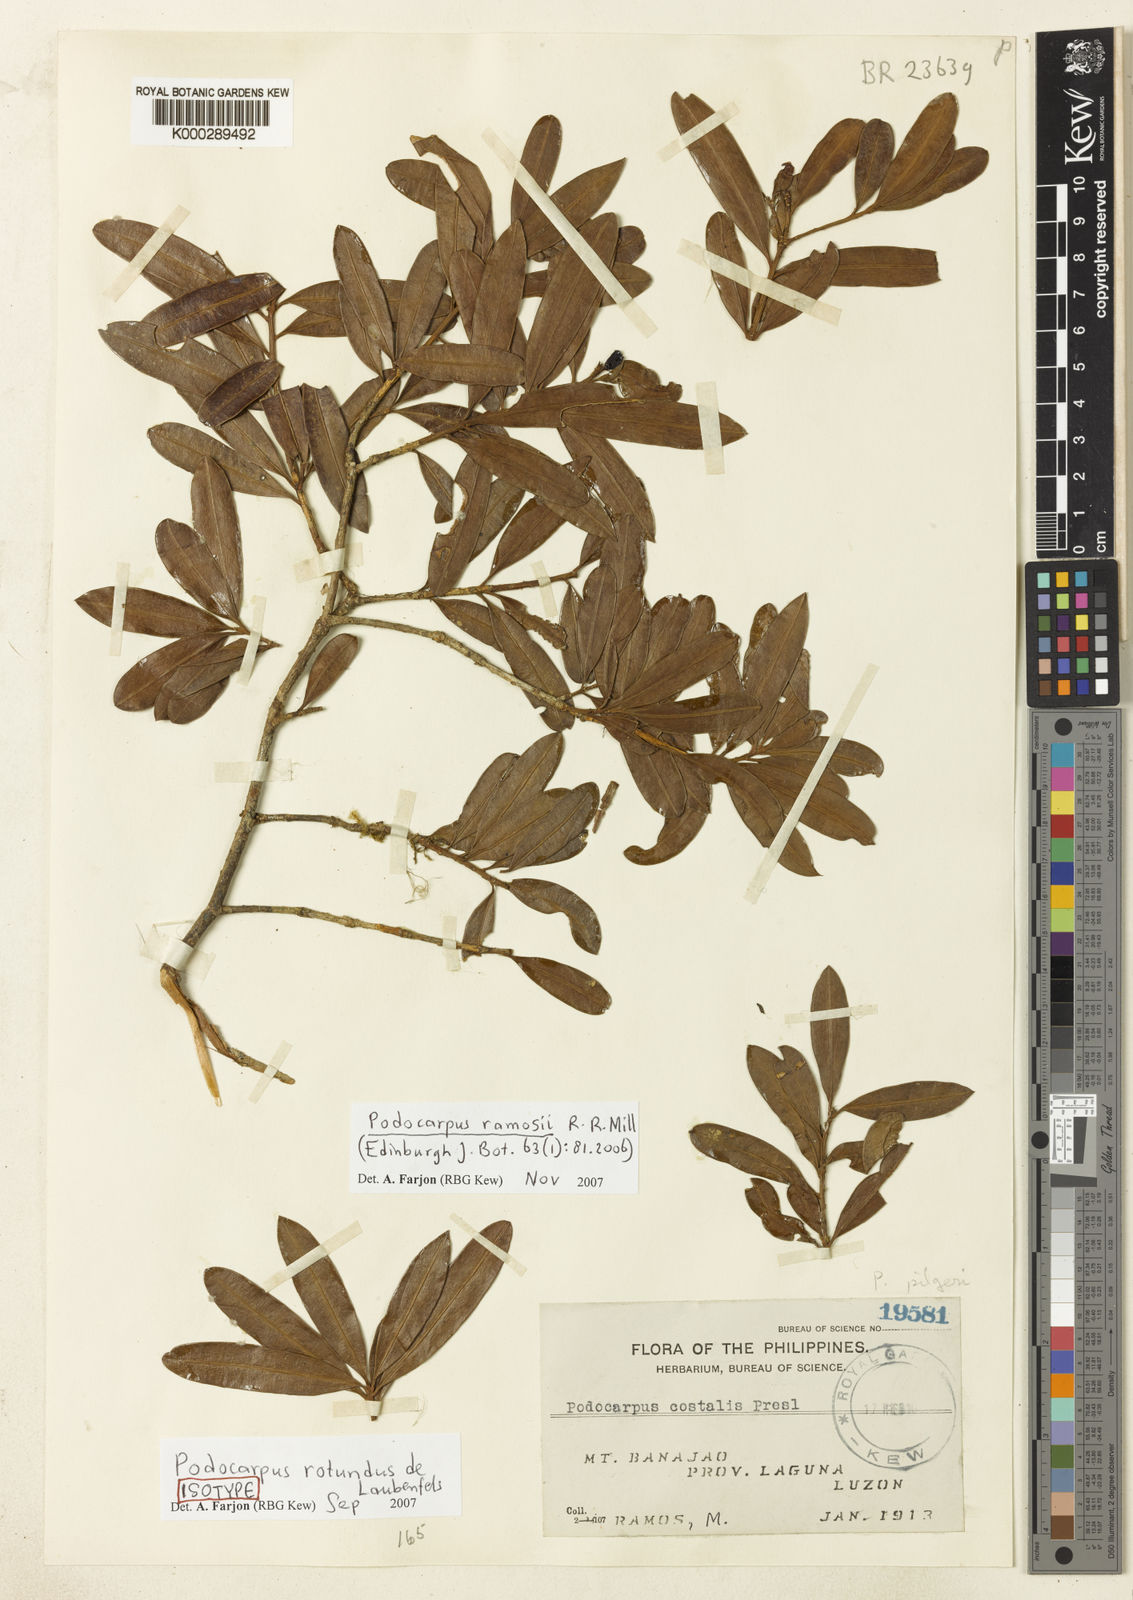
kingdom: Plantae
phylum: Tracheophyta
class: Pinopsida
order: Pinales
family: Podocarpaceae
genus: Podocarpus
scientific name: Podocarpus ramosii
